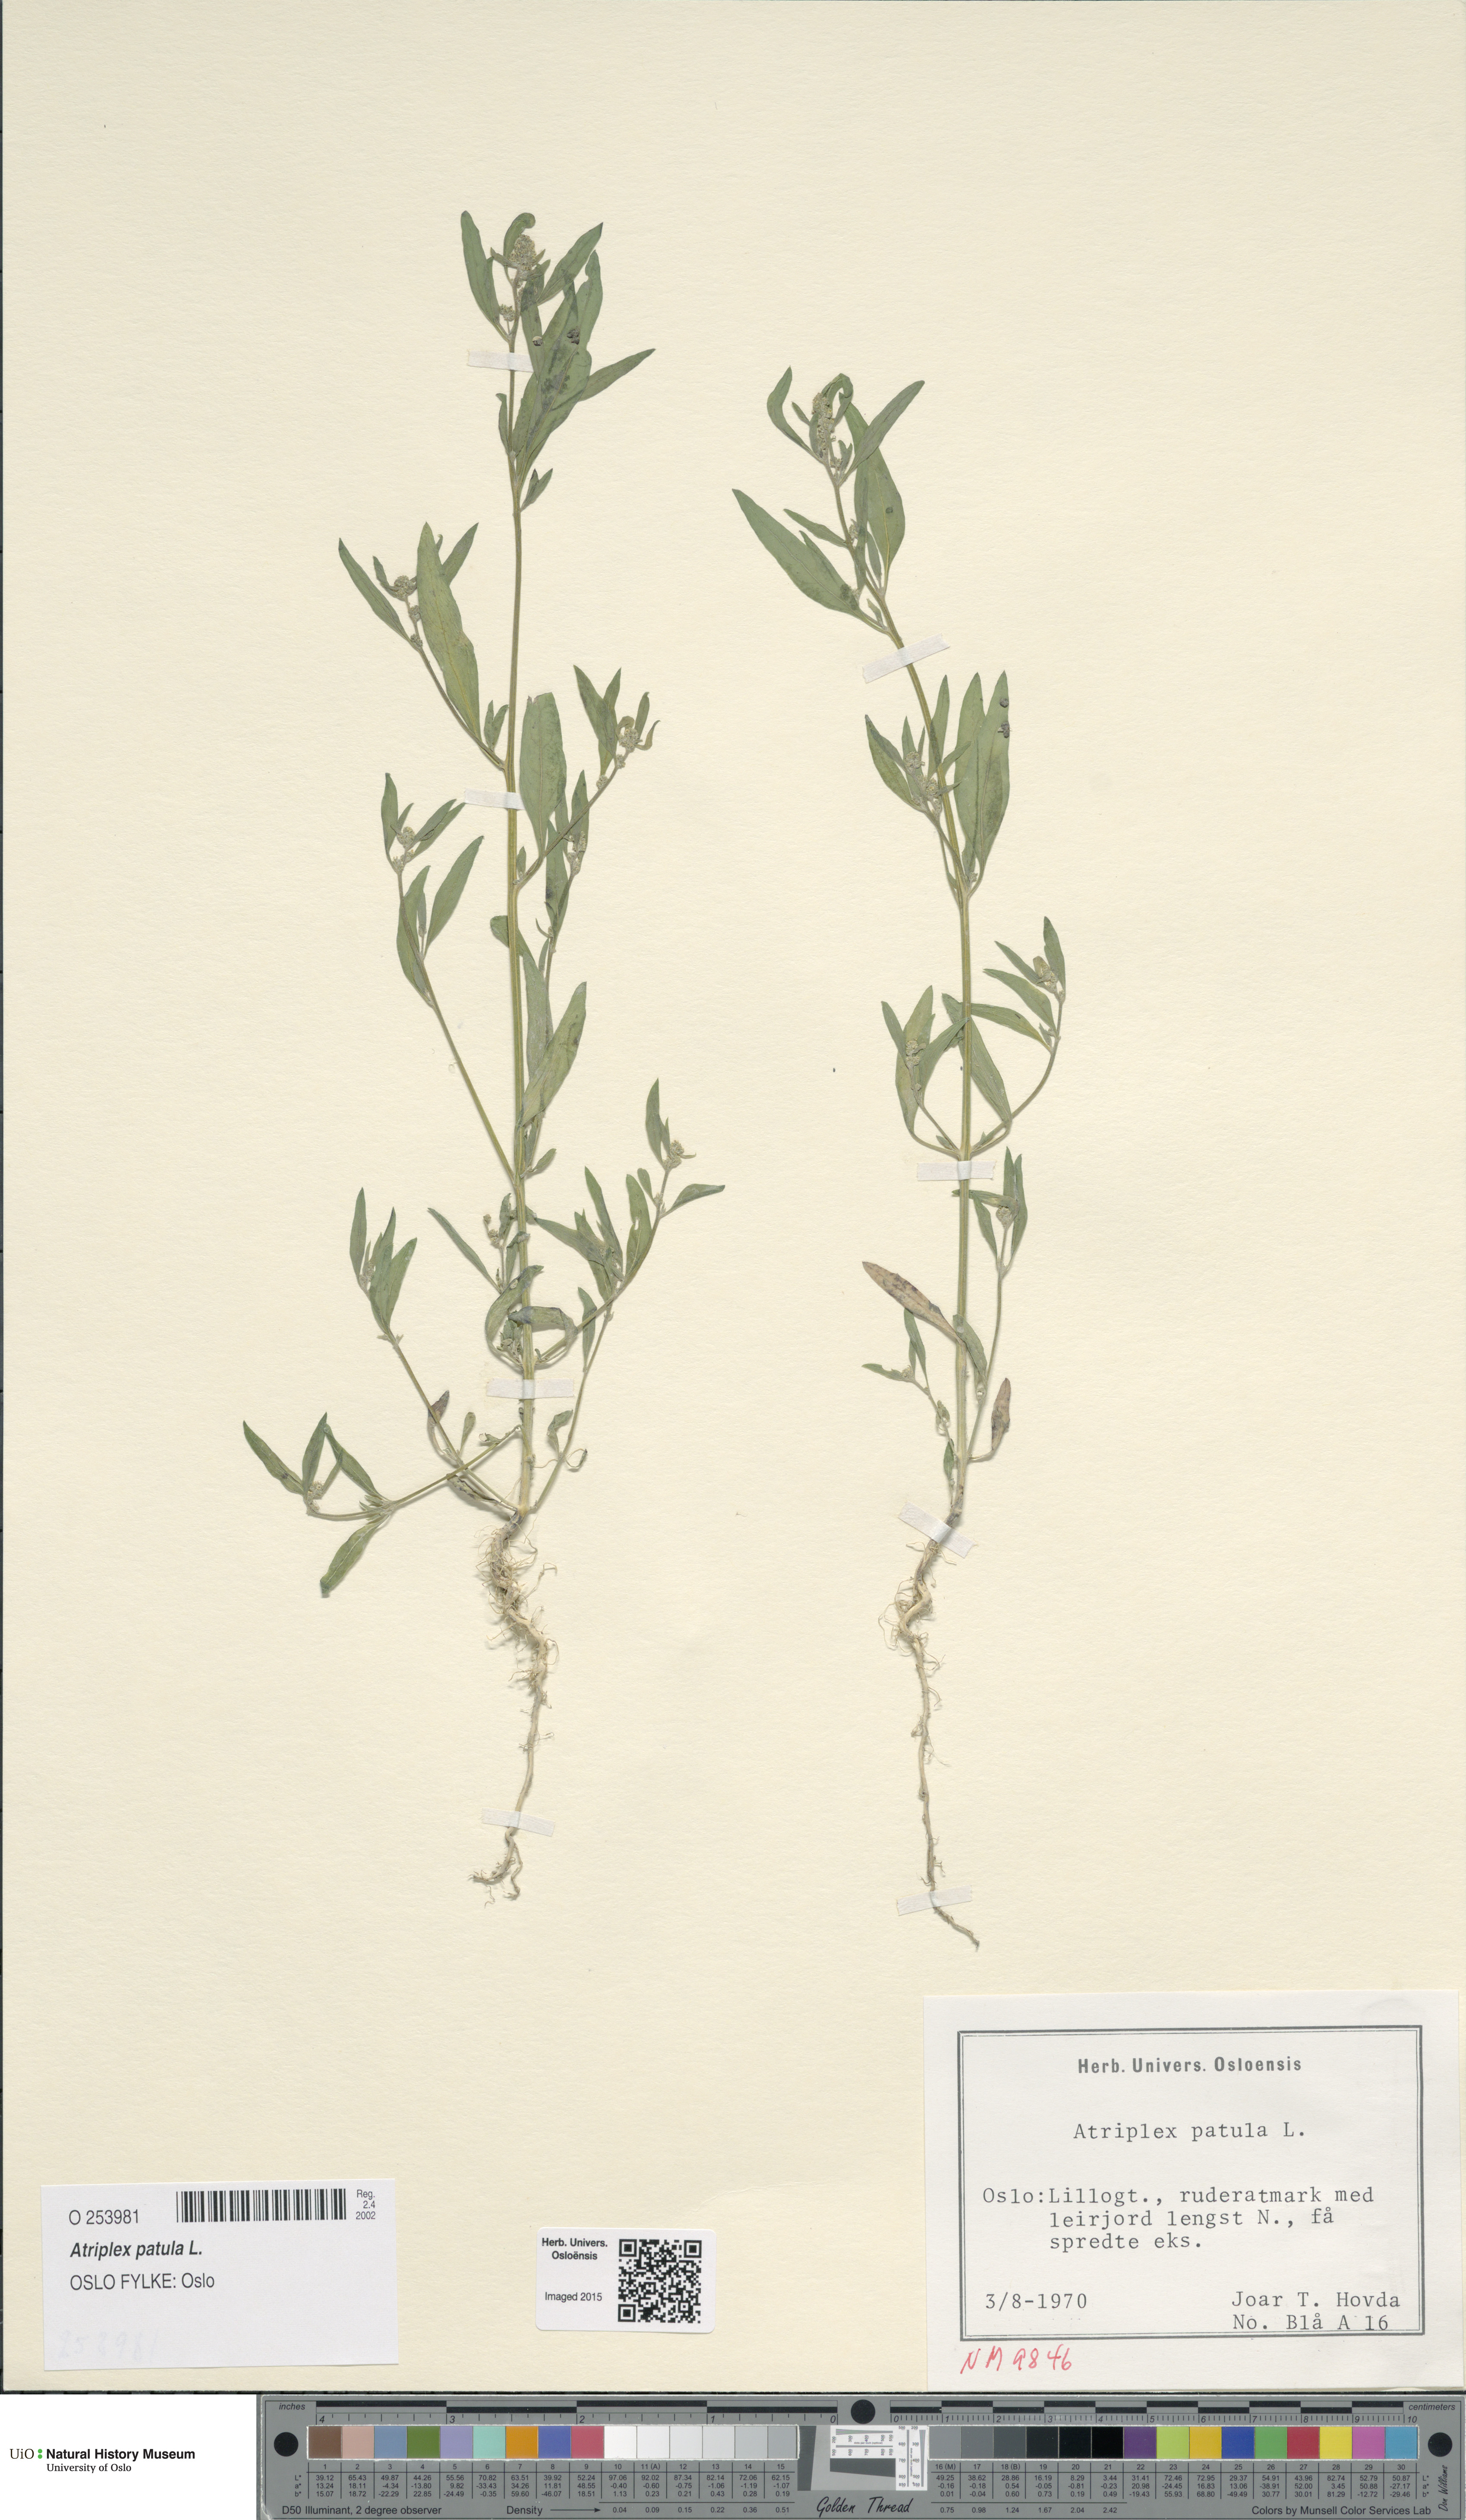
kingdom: Plantae
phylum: Tracheophyta
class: Magnoliopsida
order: Caryophyllales
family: Amaranthaceae
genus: Atriplex
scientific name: Atriplex patula
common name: Common orache
